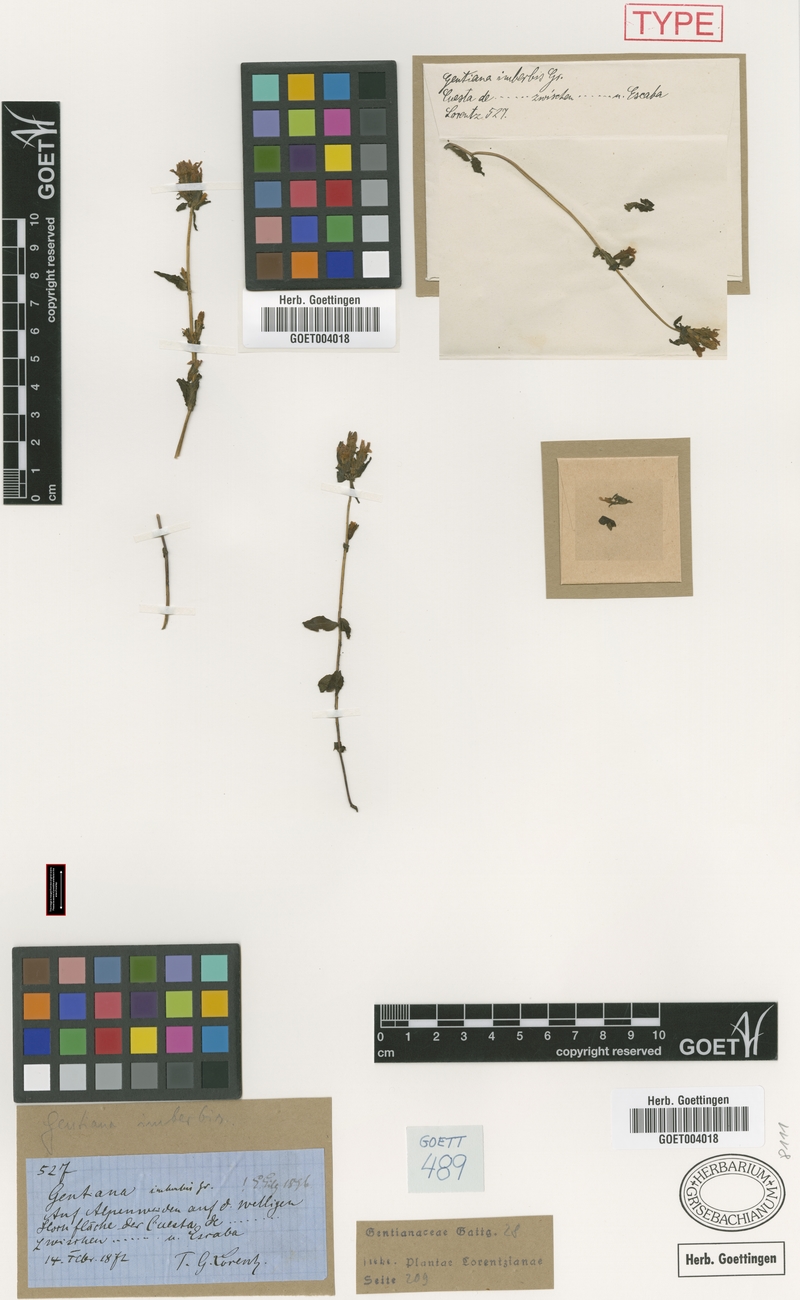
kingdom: Plantae
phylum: Tracheophyta
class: Magnoliopsida
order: Gentianales
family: Gentianaceae
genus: Gentianella
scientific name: Gentianella imberbis
